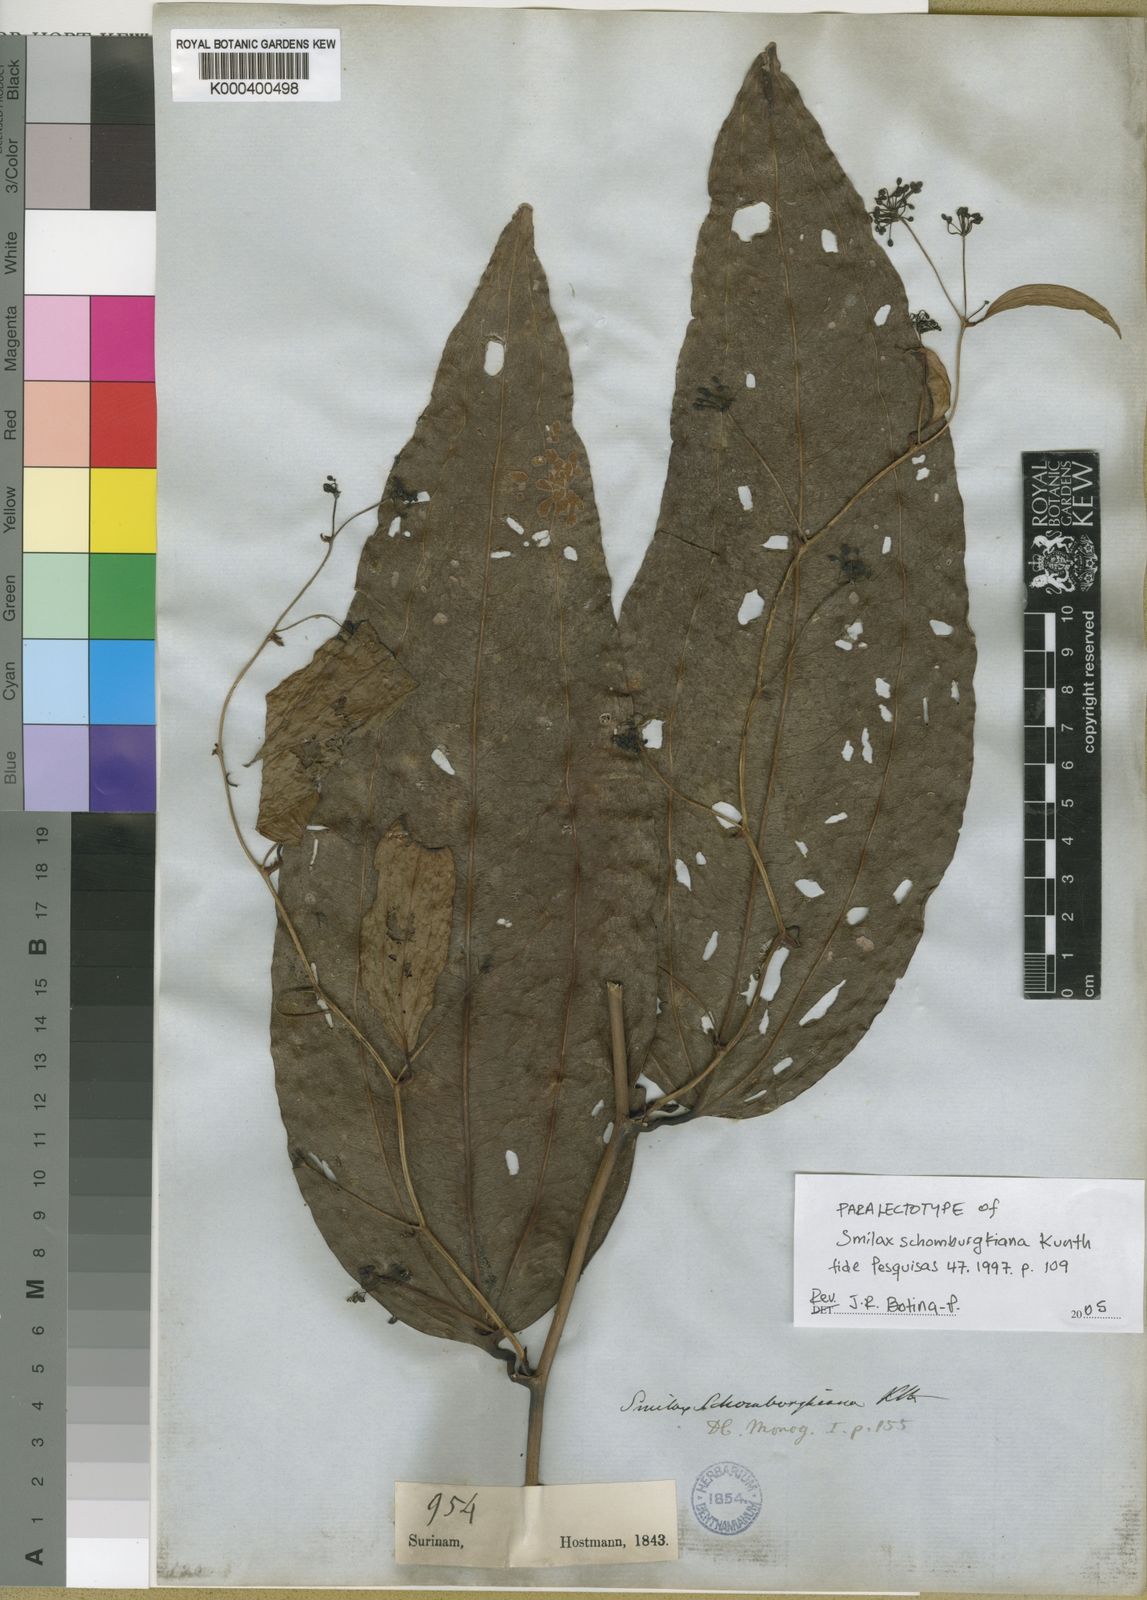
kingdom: Plantae
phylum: Tracheophyta
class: Liliopsida
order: Liliales
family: Smilacaceae
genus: Smilax
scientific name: Smilax schomburgkiana
